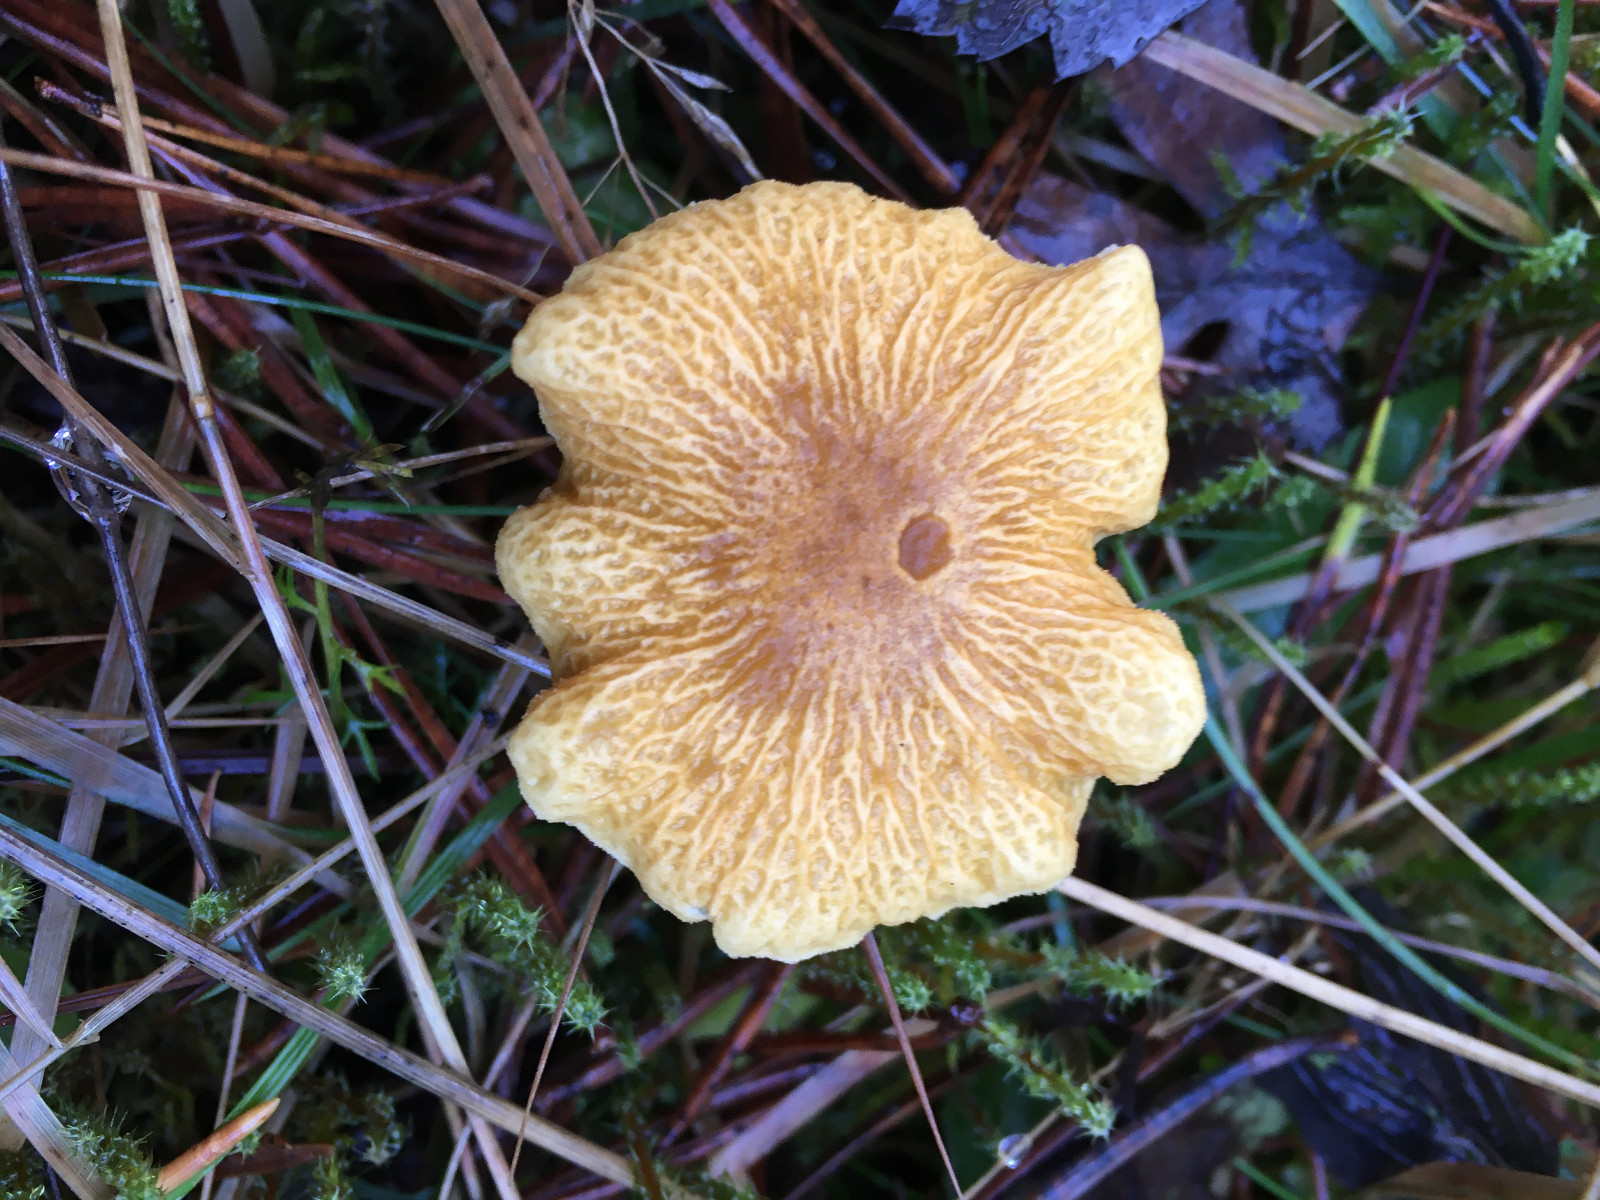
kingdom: Fungi
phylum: Basidiomycota
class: Agaricomycetes
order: Agaricales
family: Tricholomataceae
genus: Cystoderma
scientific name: Cystoderma amianthinum
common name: okkergul grynhat
